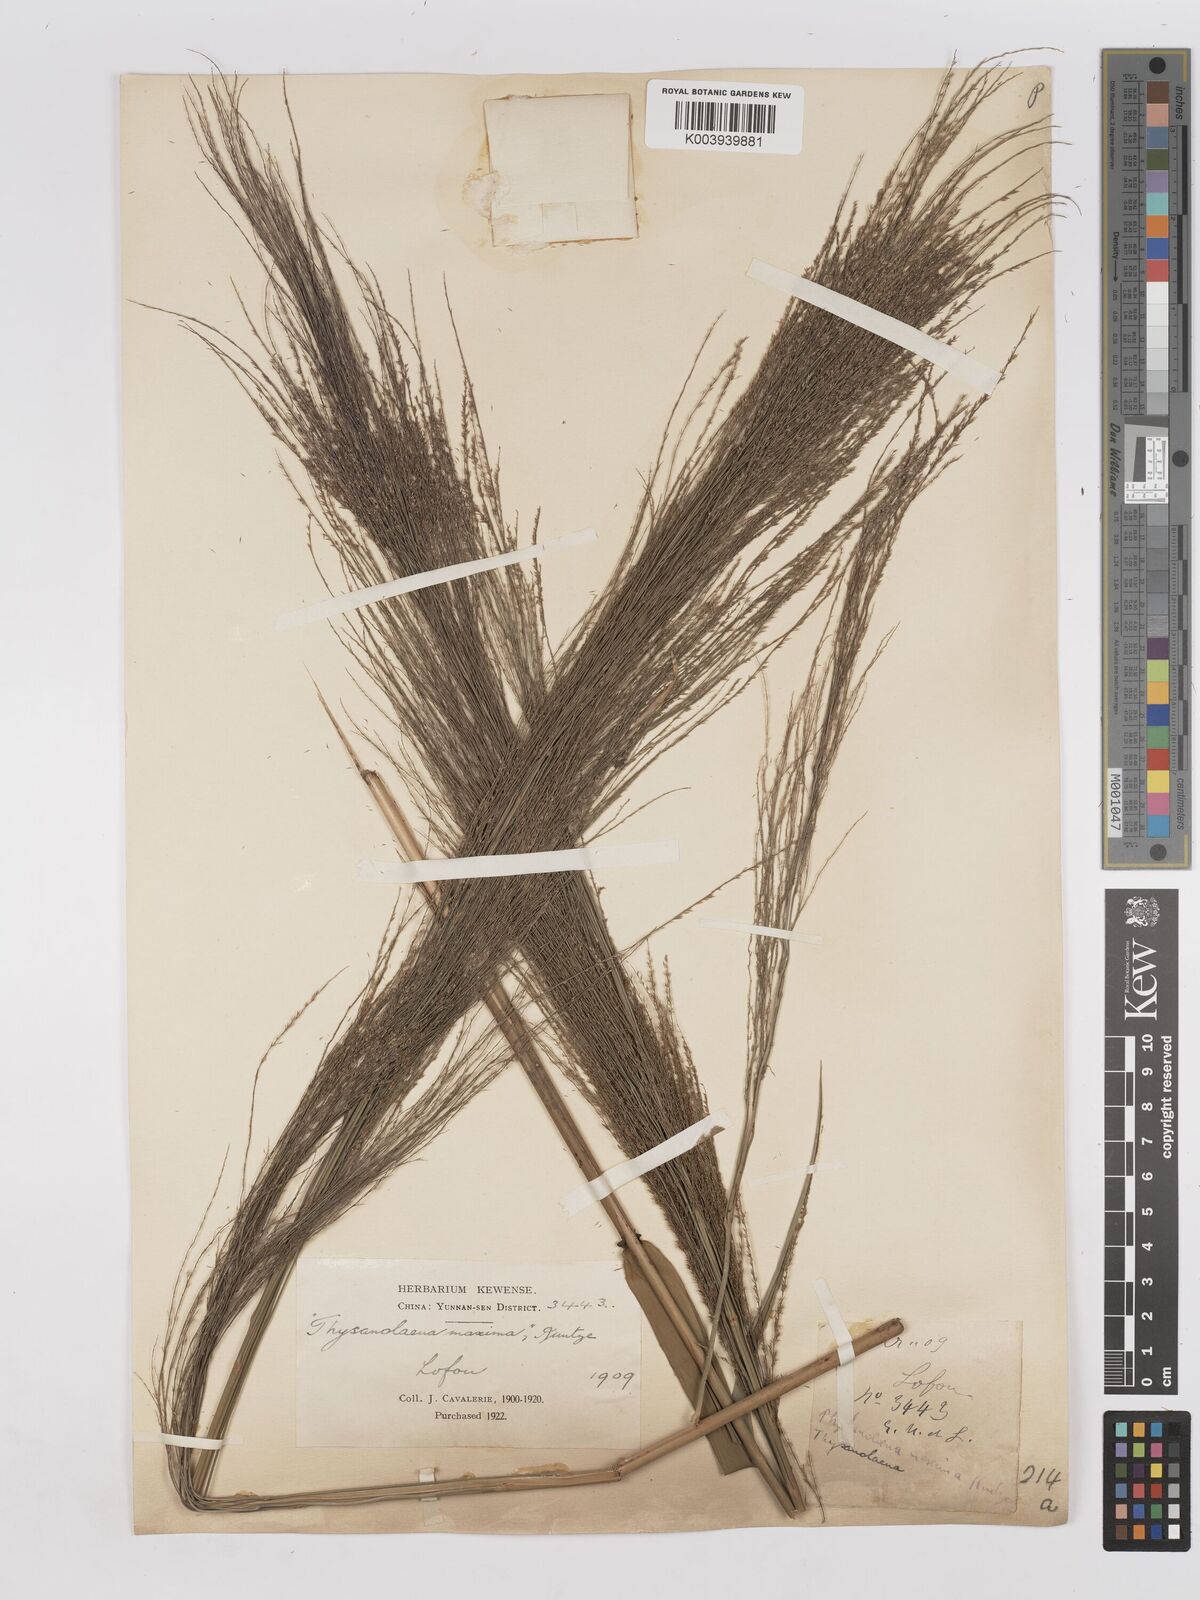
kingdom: Plantae
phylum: Tracheophyta
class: Liliopsida
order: Poales
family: Poaceae
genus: Thysanolaena
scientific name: Thysanolaena latifolia
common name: Tiger grass
